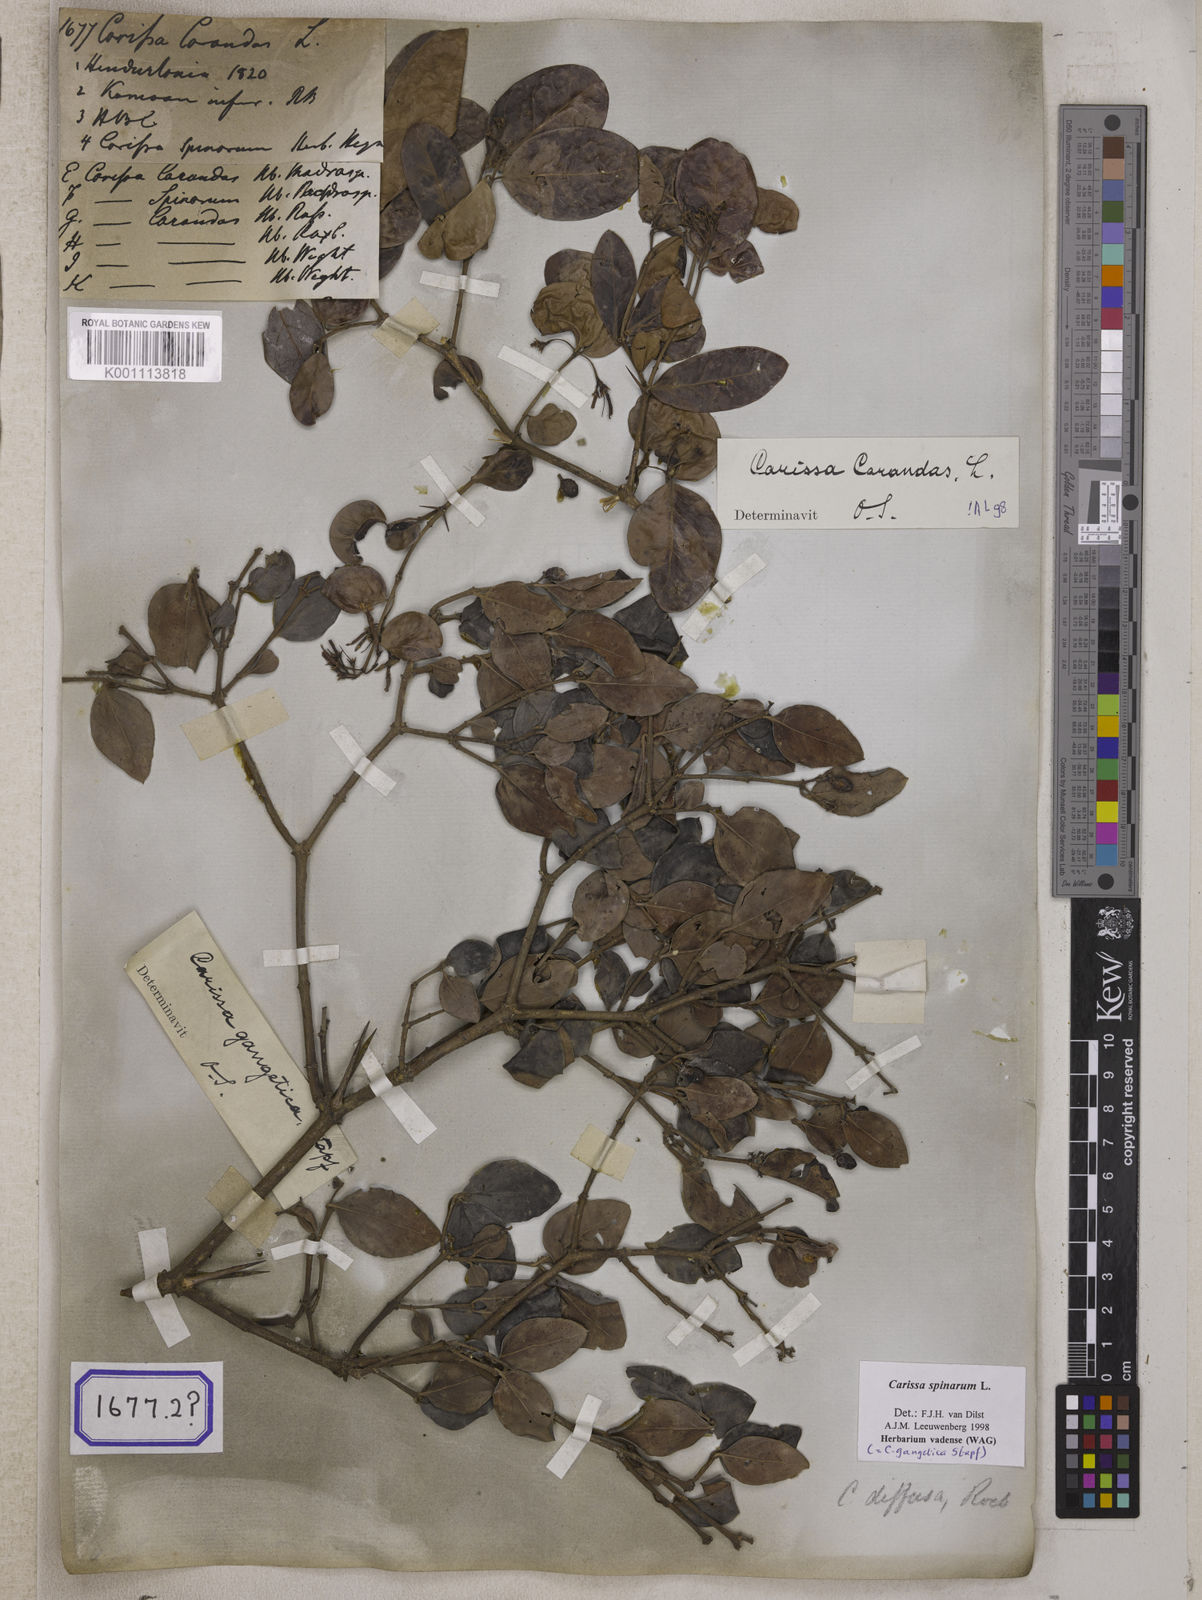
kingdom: Plantae
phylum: Tracheophyta
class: Magnoliopsida
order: Gentianales
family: Apocynaceae
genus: Carissa
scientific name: Carissa carandas
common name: Karanda
